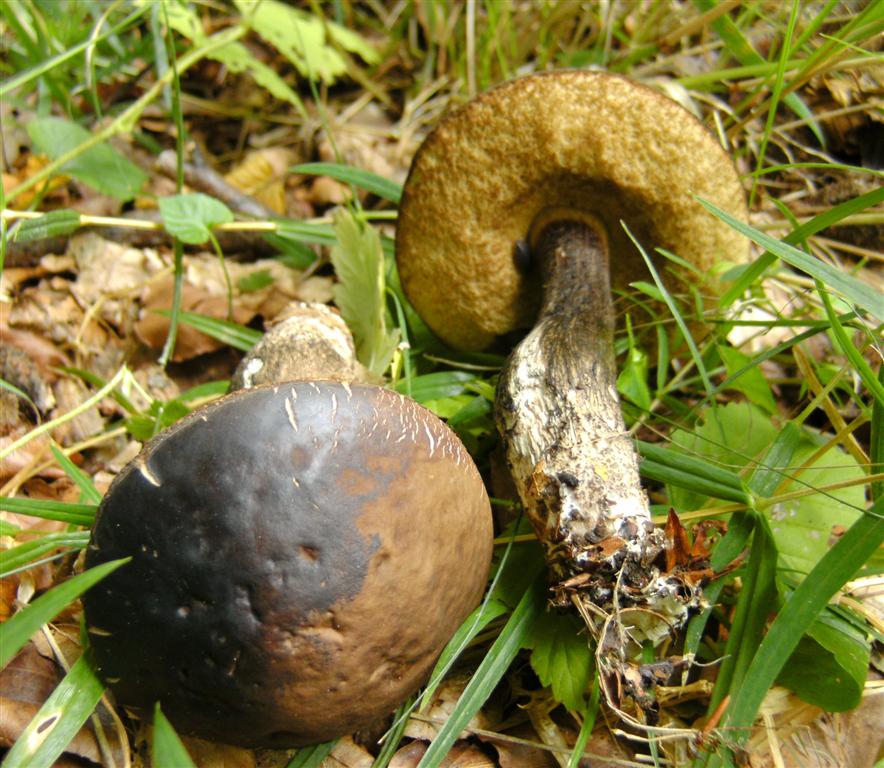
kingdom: Fungi
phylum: Basidiomycota
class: Agaricomycetes
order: Boletales
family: Boletaceae
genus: Leccinellum
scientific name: Leccinellum pseudoscabrum
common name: avnbøg-skælrørhat
